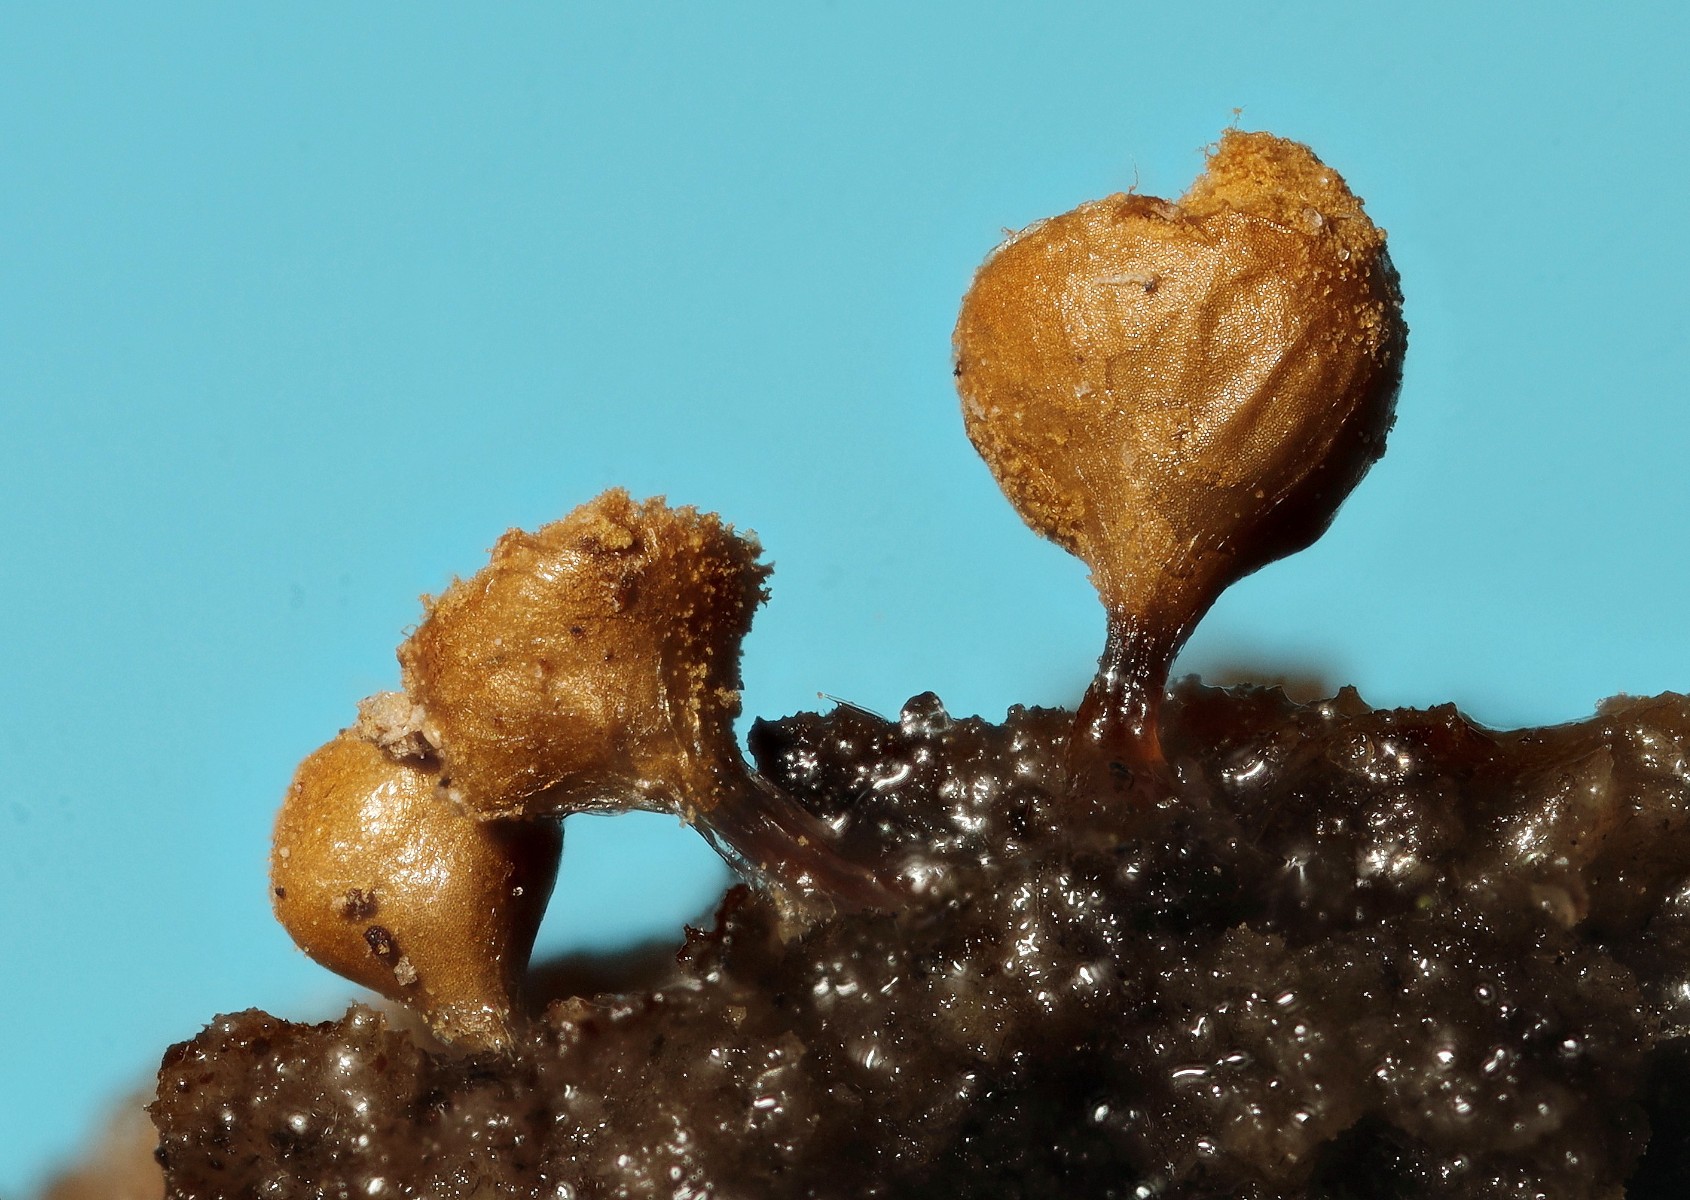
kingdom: Protozoa
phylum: Mycetozoa
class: Myxomycetes
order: Trichiales
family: Trichiaceae
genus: Trichia
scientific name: Trichia crateriformis
